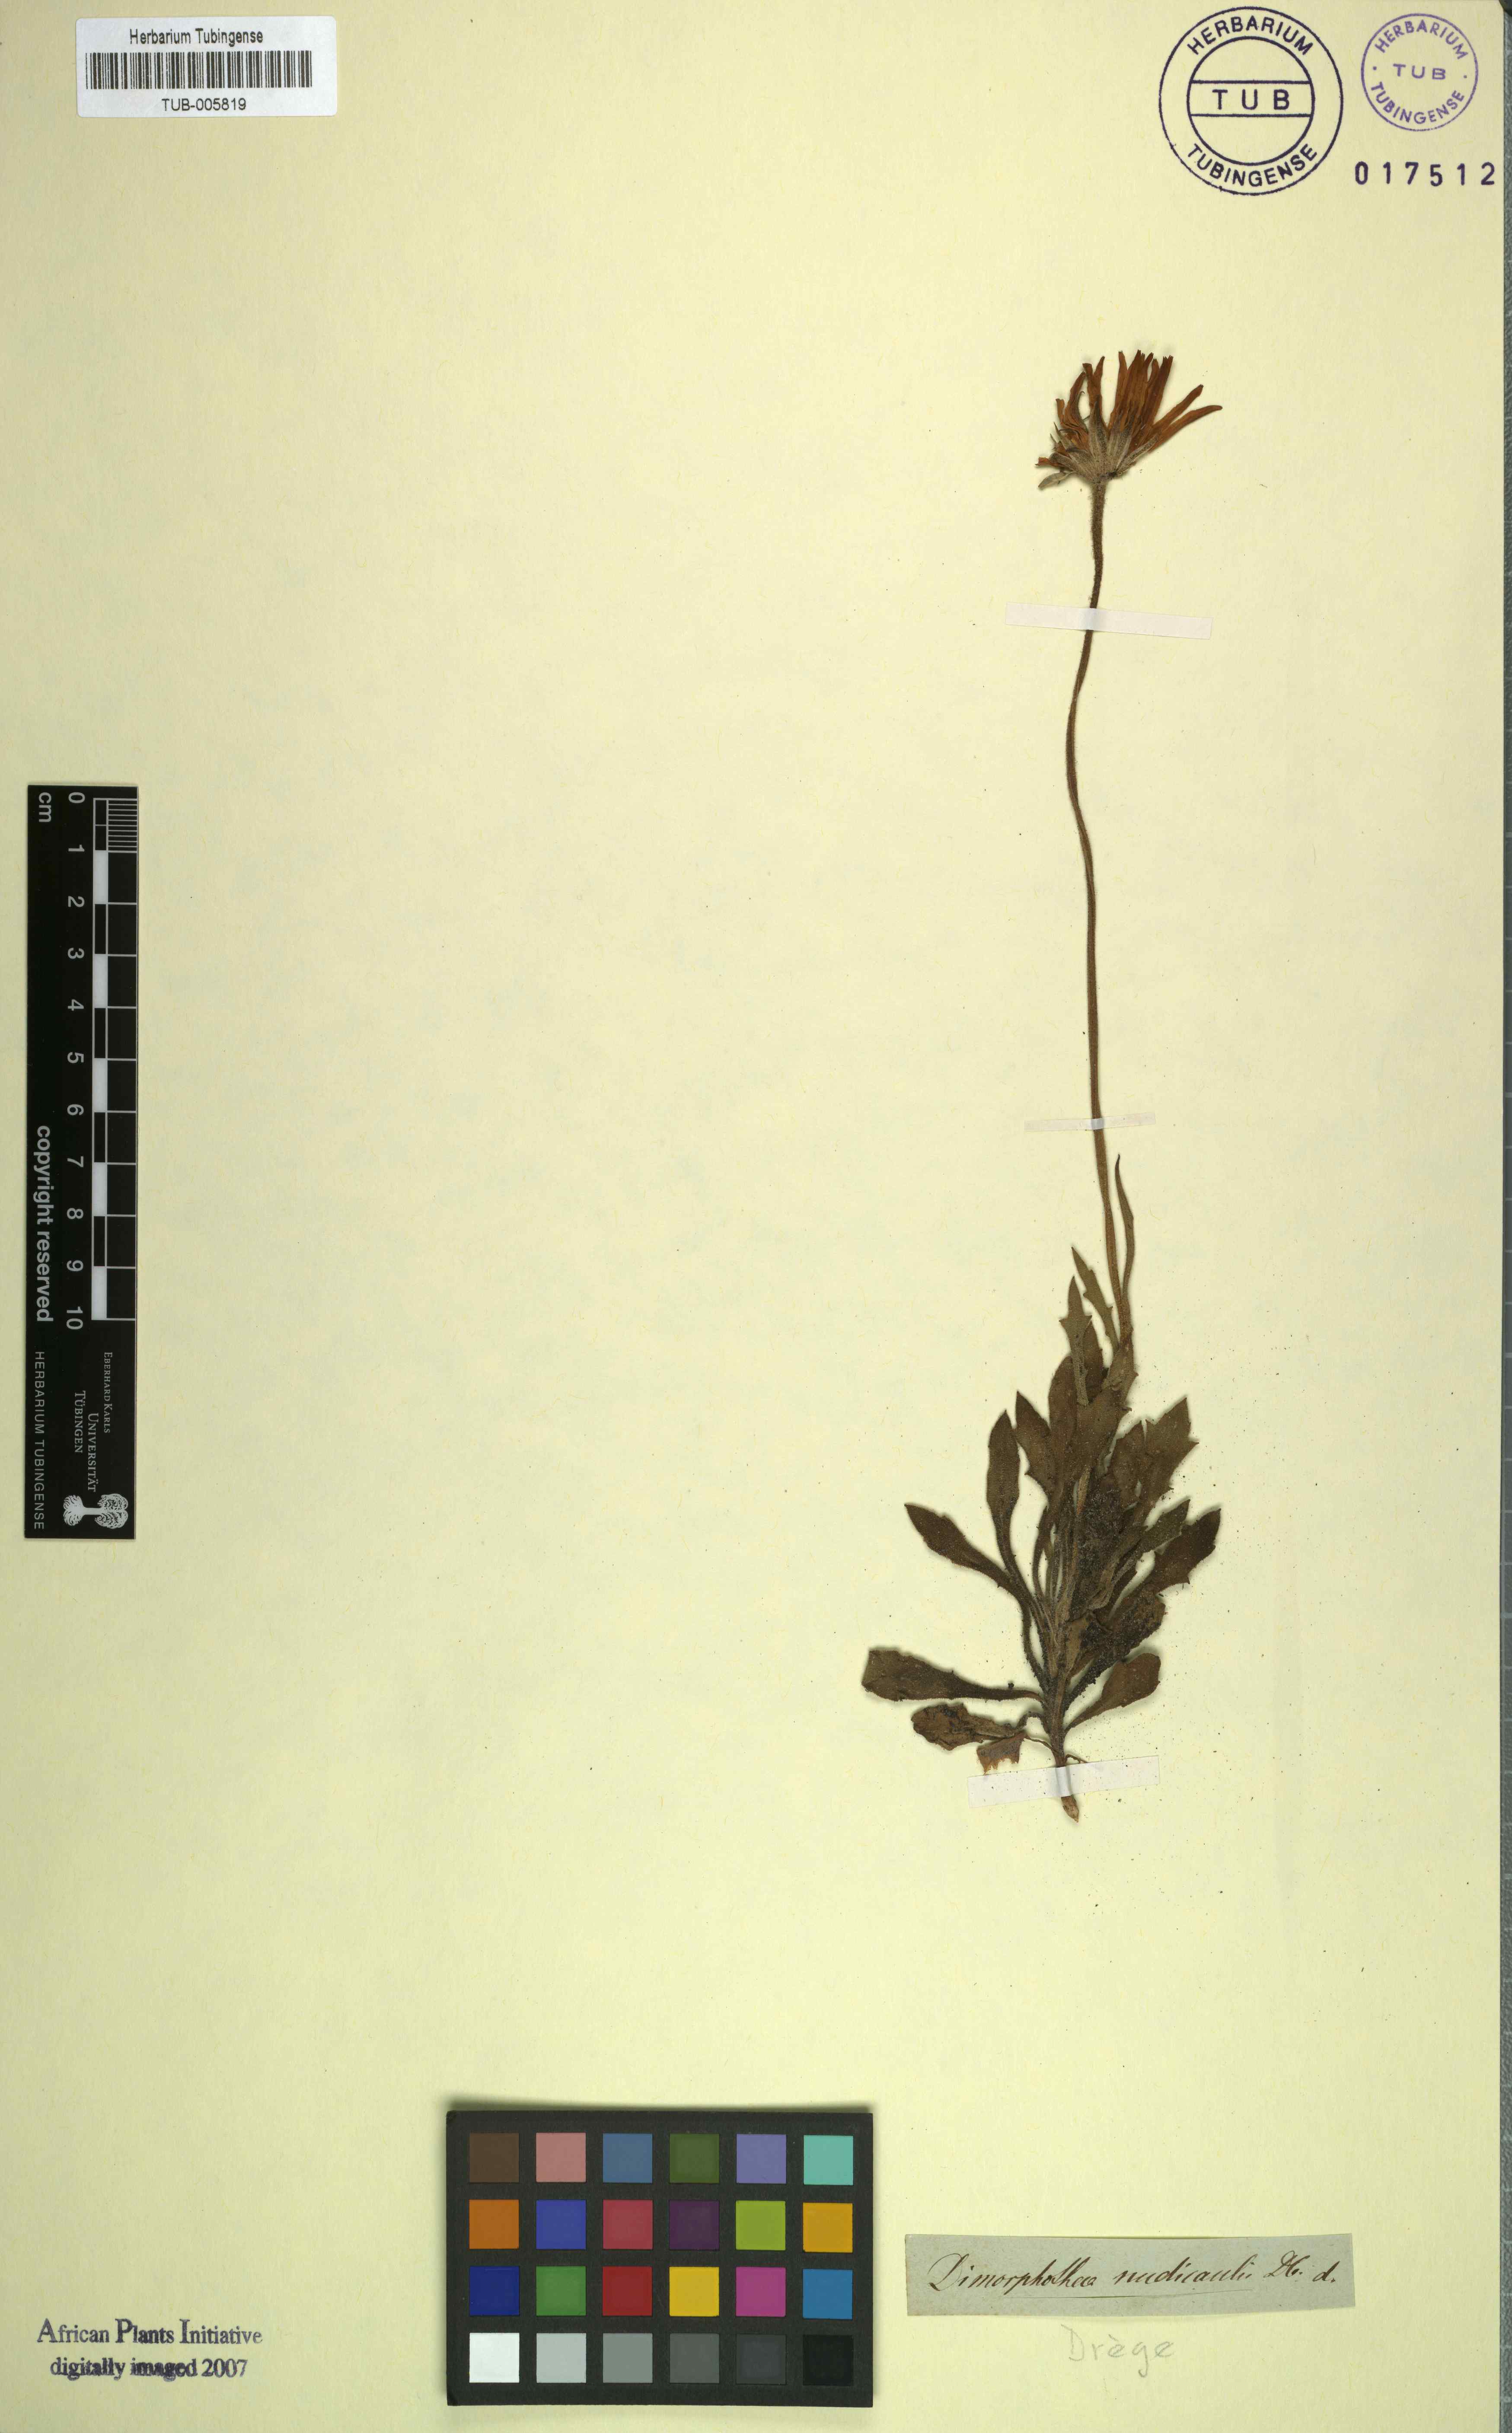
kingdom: Plantae
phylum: Tracheophyta
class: Magnoliopsida
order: Asterales
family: Asteraceae
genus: Dimorphotheca
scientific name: Dimorphotheca nudicaulis
